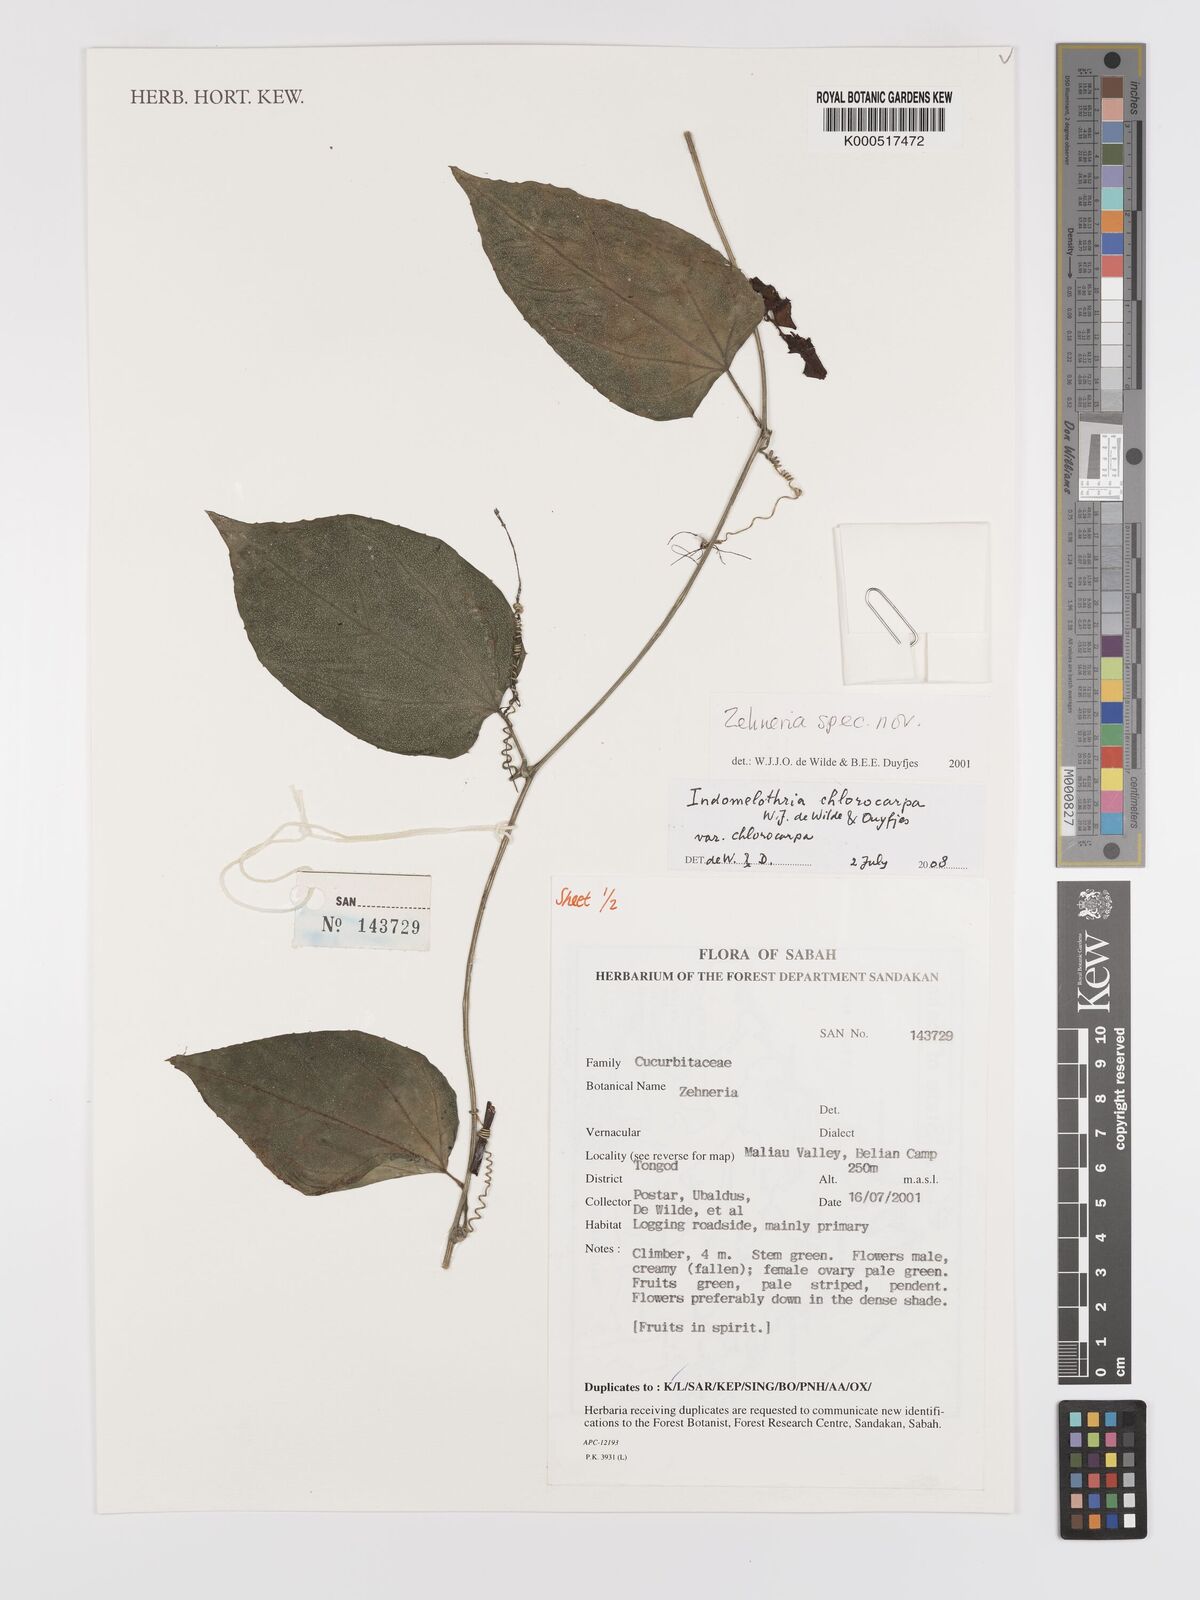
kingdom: Plantae
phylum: Tracheophyta
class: Magnoliopsida
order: Cucurbitales
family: Cucurbitaceae
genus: Indomelothria
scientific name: Indomelothria chlorocarpa
